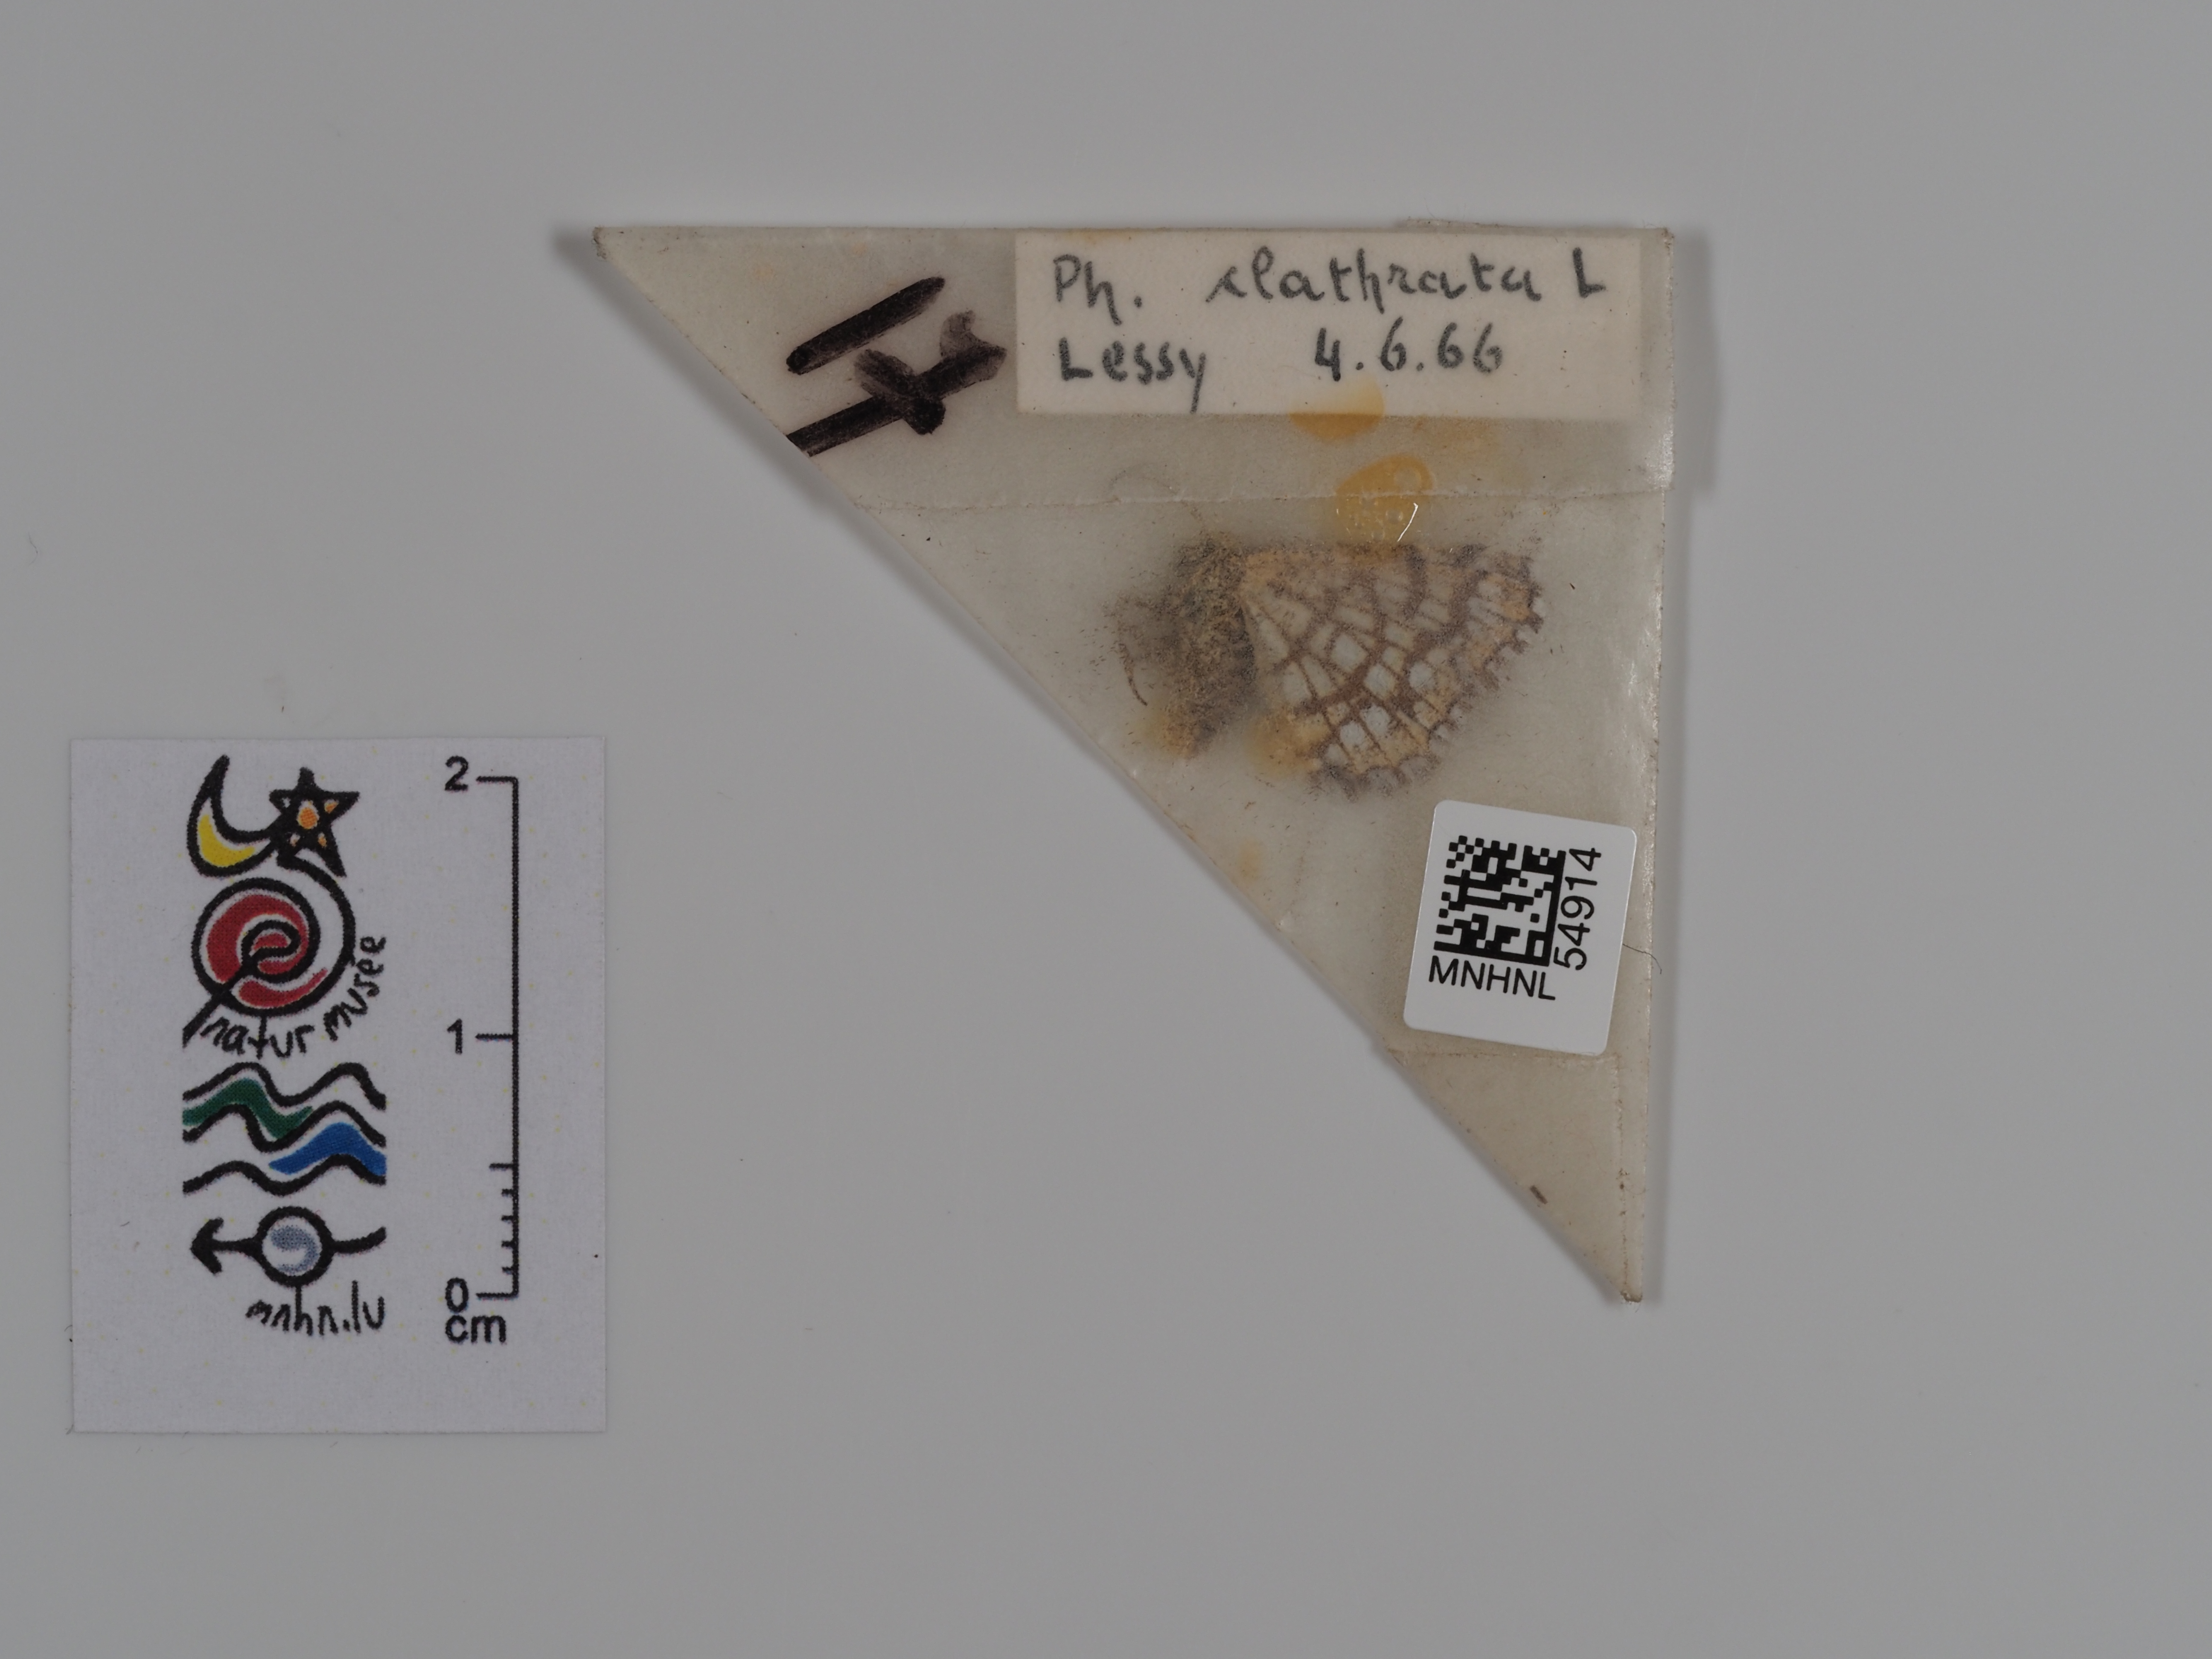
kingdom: Animalia
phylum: Arthropoda
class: Insecta
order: Lepidoptera
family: Geometridae
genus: Chiasmia
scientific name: Chiasmia clathrata
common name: Latticed heath
